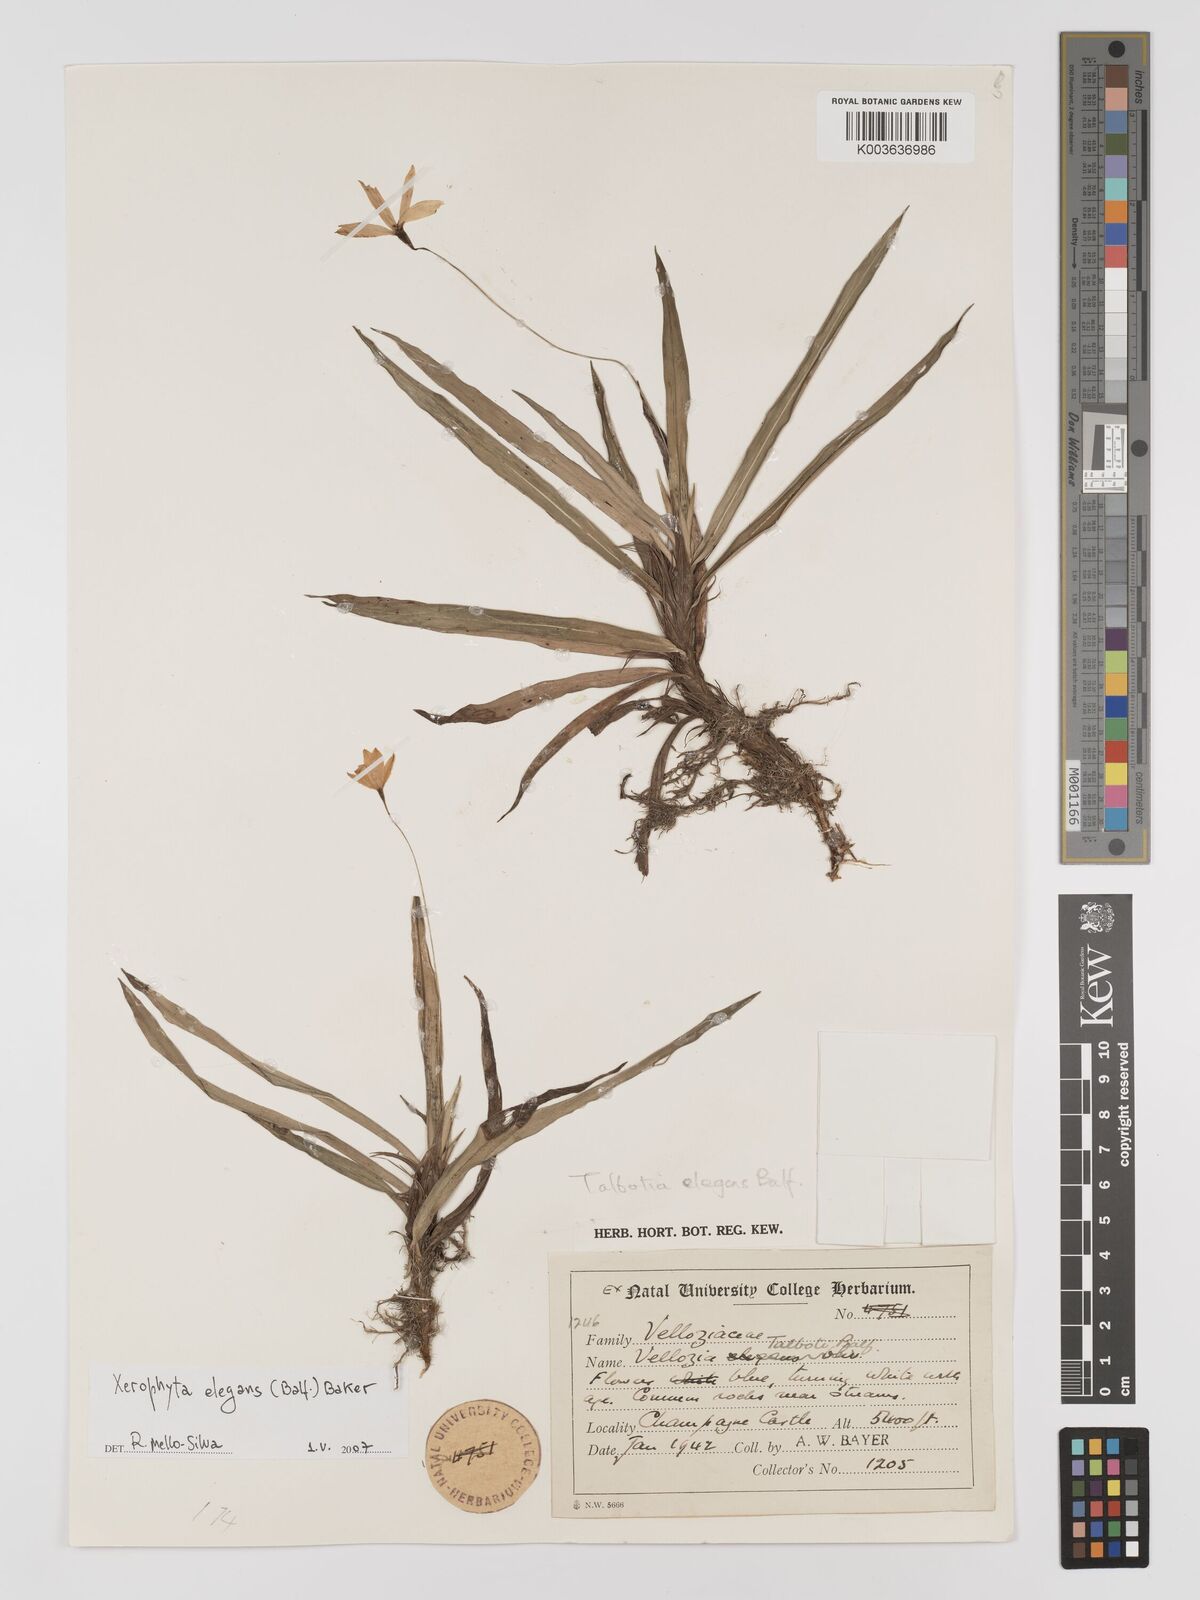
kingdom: Plantae
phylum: Tracheophyta
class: Liliopsida
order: Pandanales
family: Velloziaceae
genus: Xerophyta
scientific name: Xerophyta elegans
